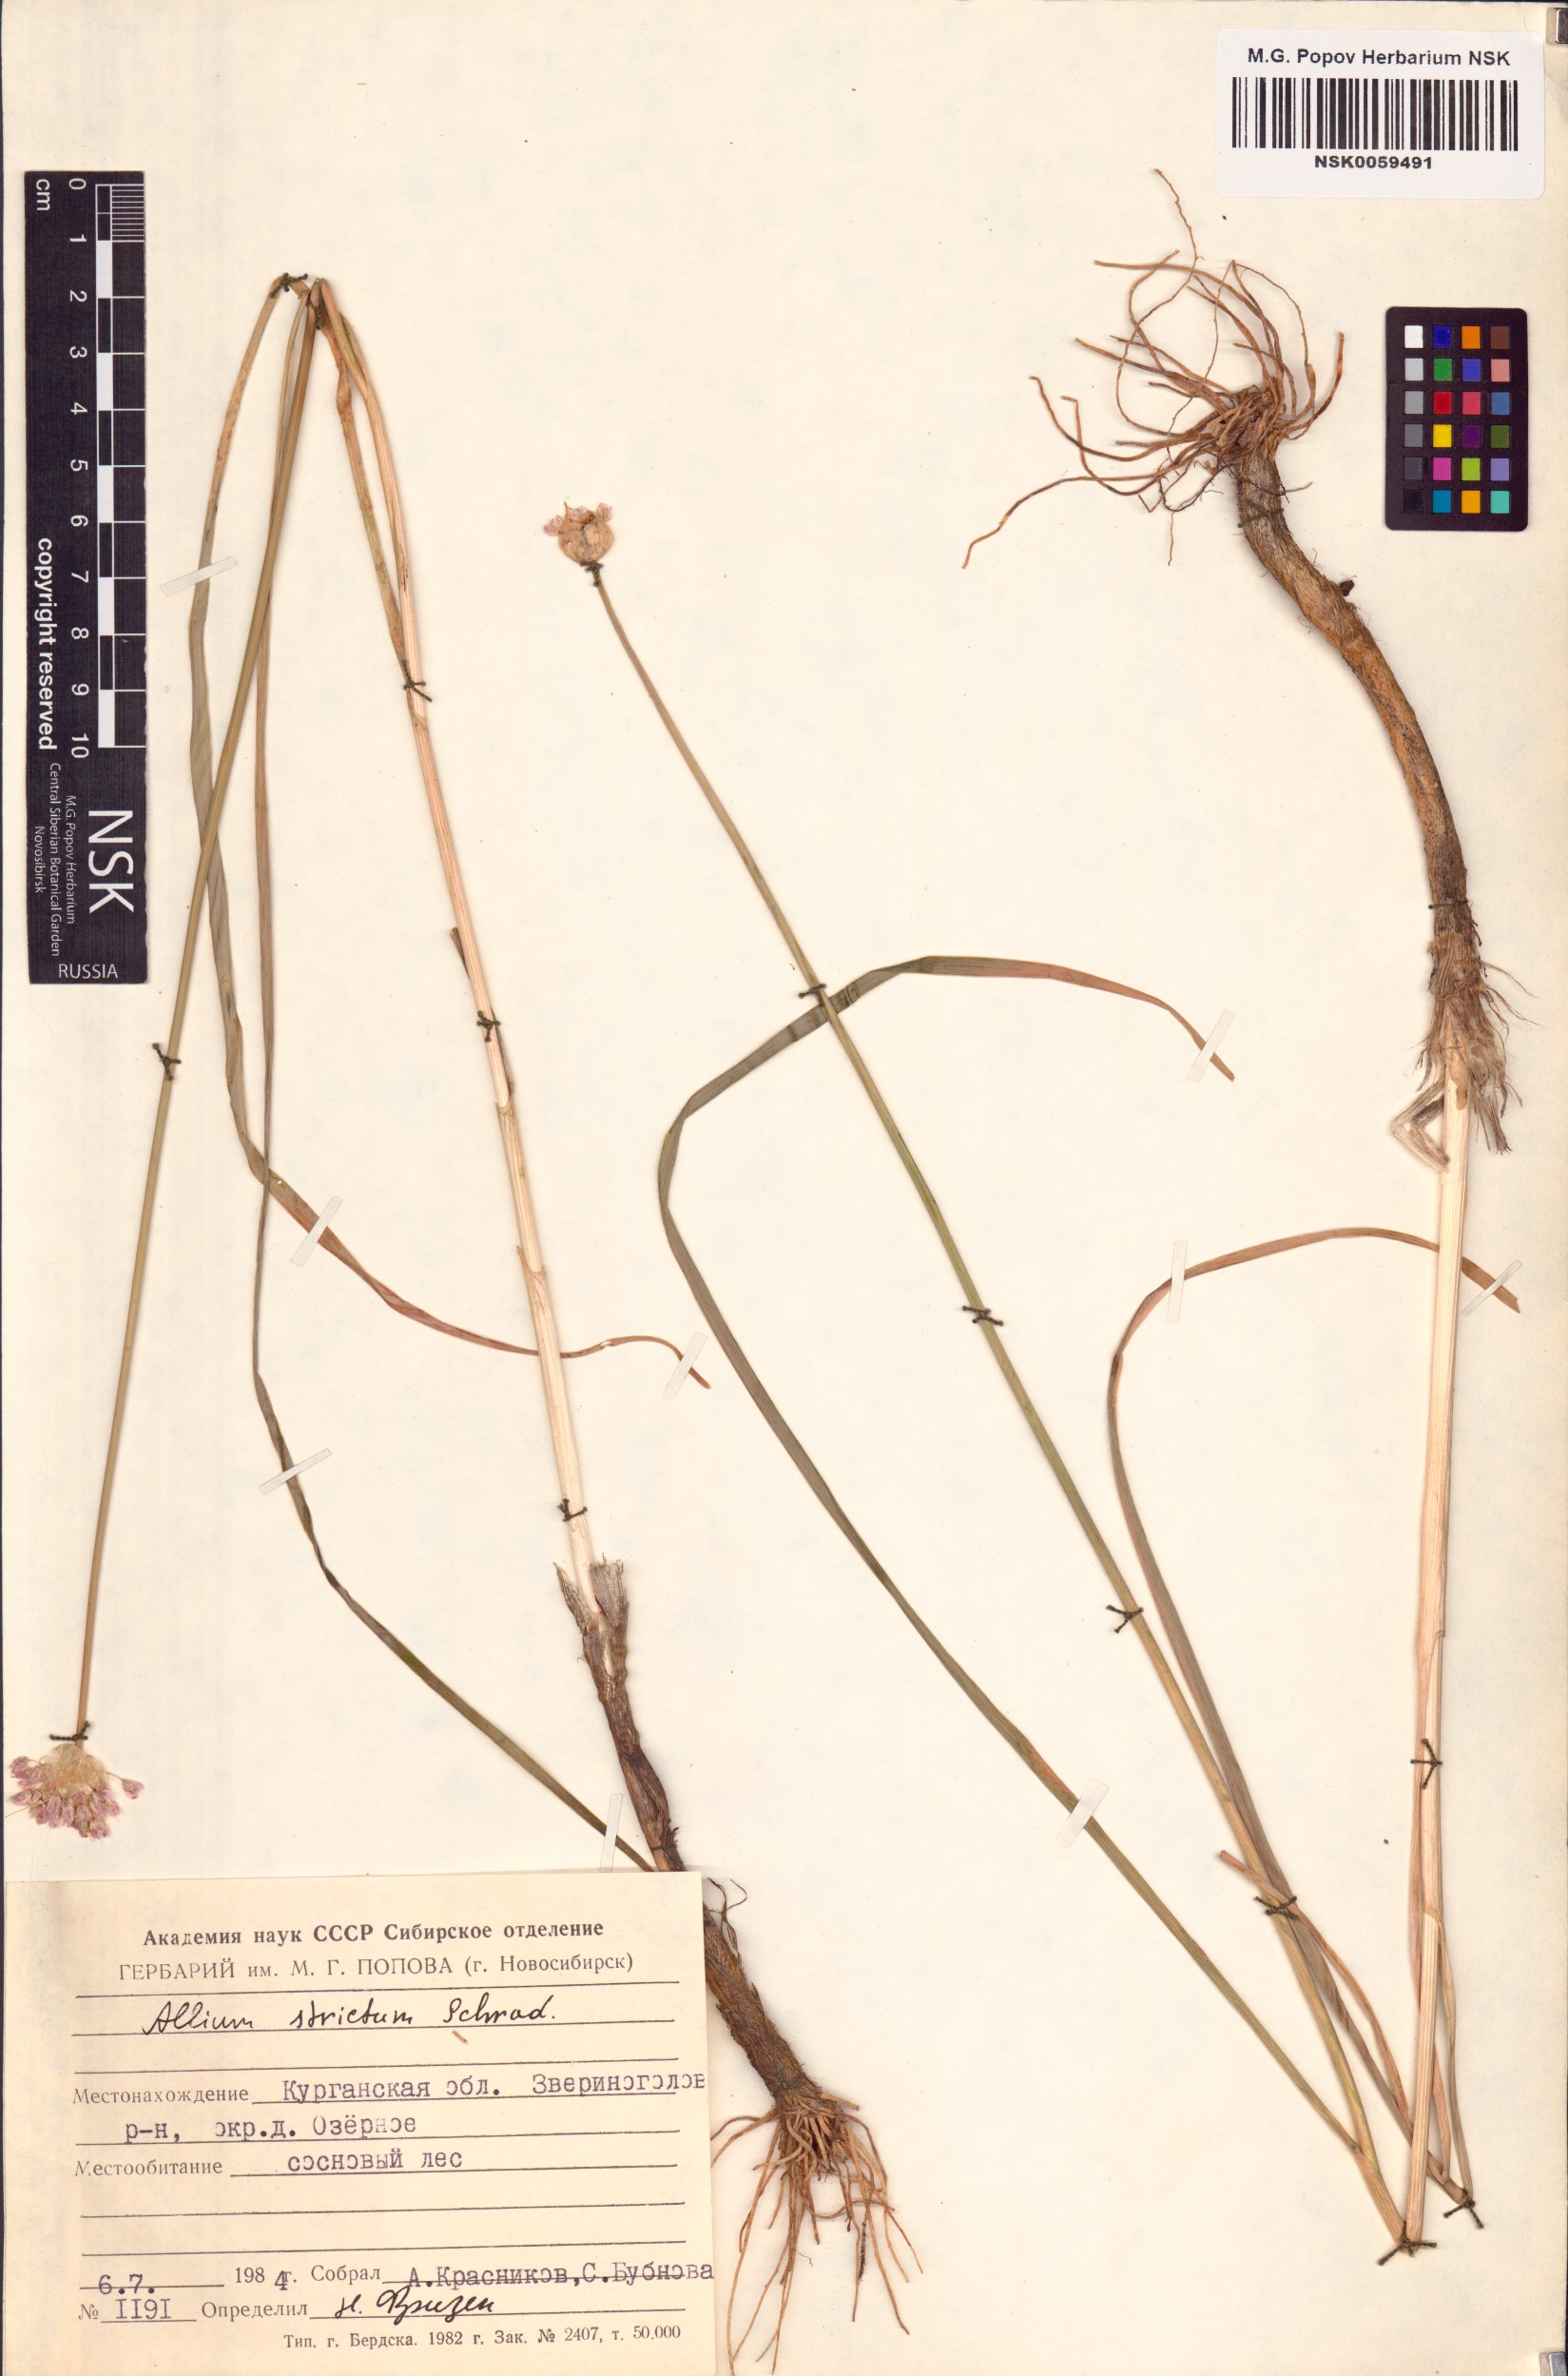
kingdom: Plantae
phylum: Tracheophyta
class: Liliopsida
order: Asparagales
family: Amaryllidaceae
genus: Allium
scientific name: Allium strictum
